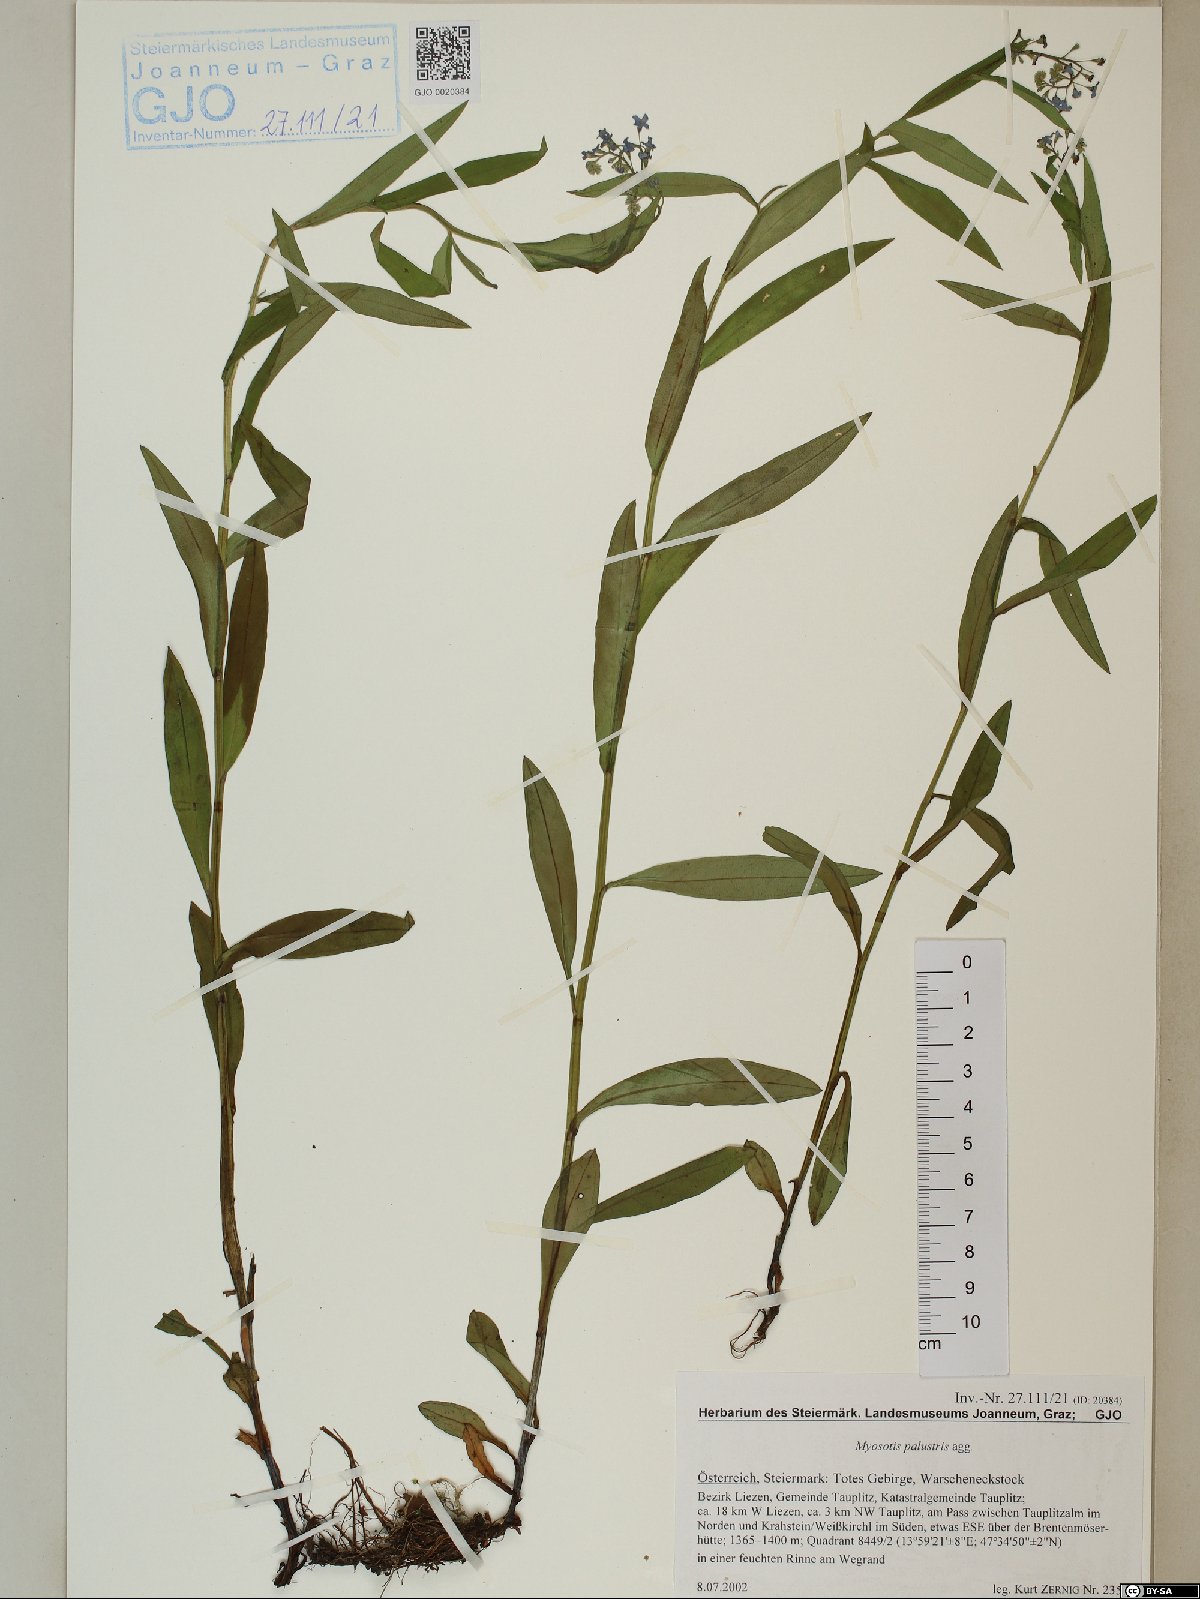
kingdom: Plantae
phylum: Tracheophyta
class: Magnoliopsida
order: Boraginales
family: Boraginaceae
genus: Myosotis
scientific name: Myosotis scorpioides
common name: Water forget-me-not
